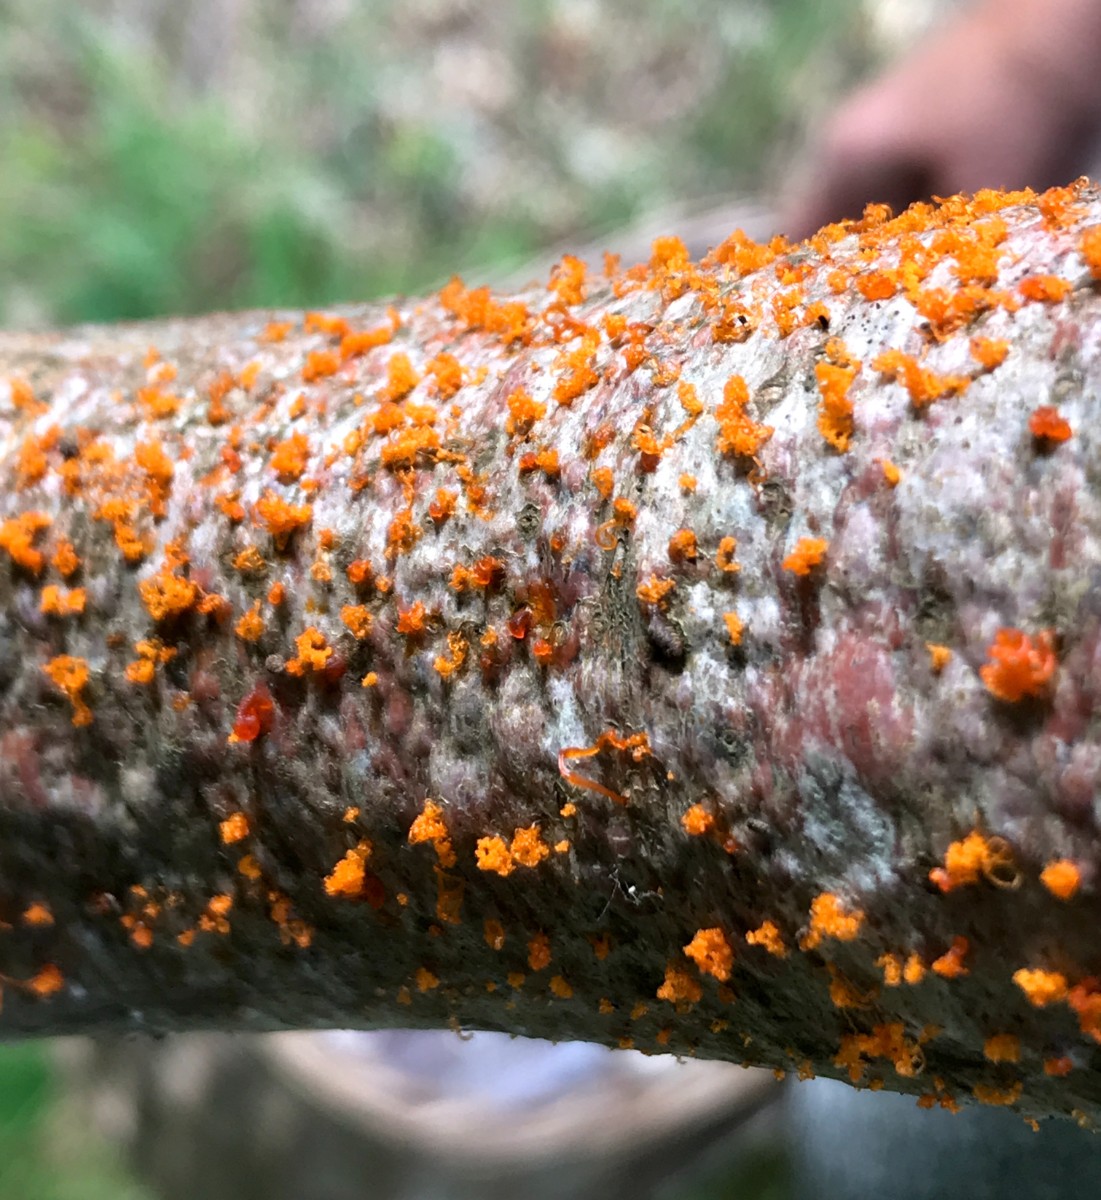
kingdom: Fungi
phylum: Ascomycota
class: Sordariomycetes
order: Xylariales
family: Diatrypaceae
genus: Eutypella
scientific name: Eutypella quaternata
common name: bøge-korsprik
